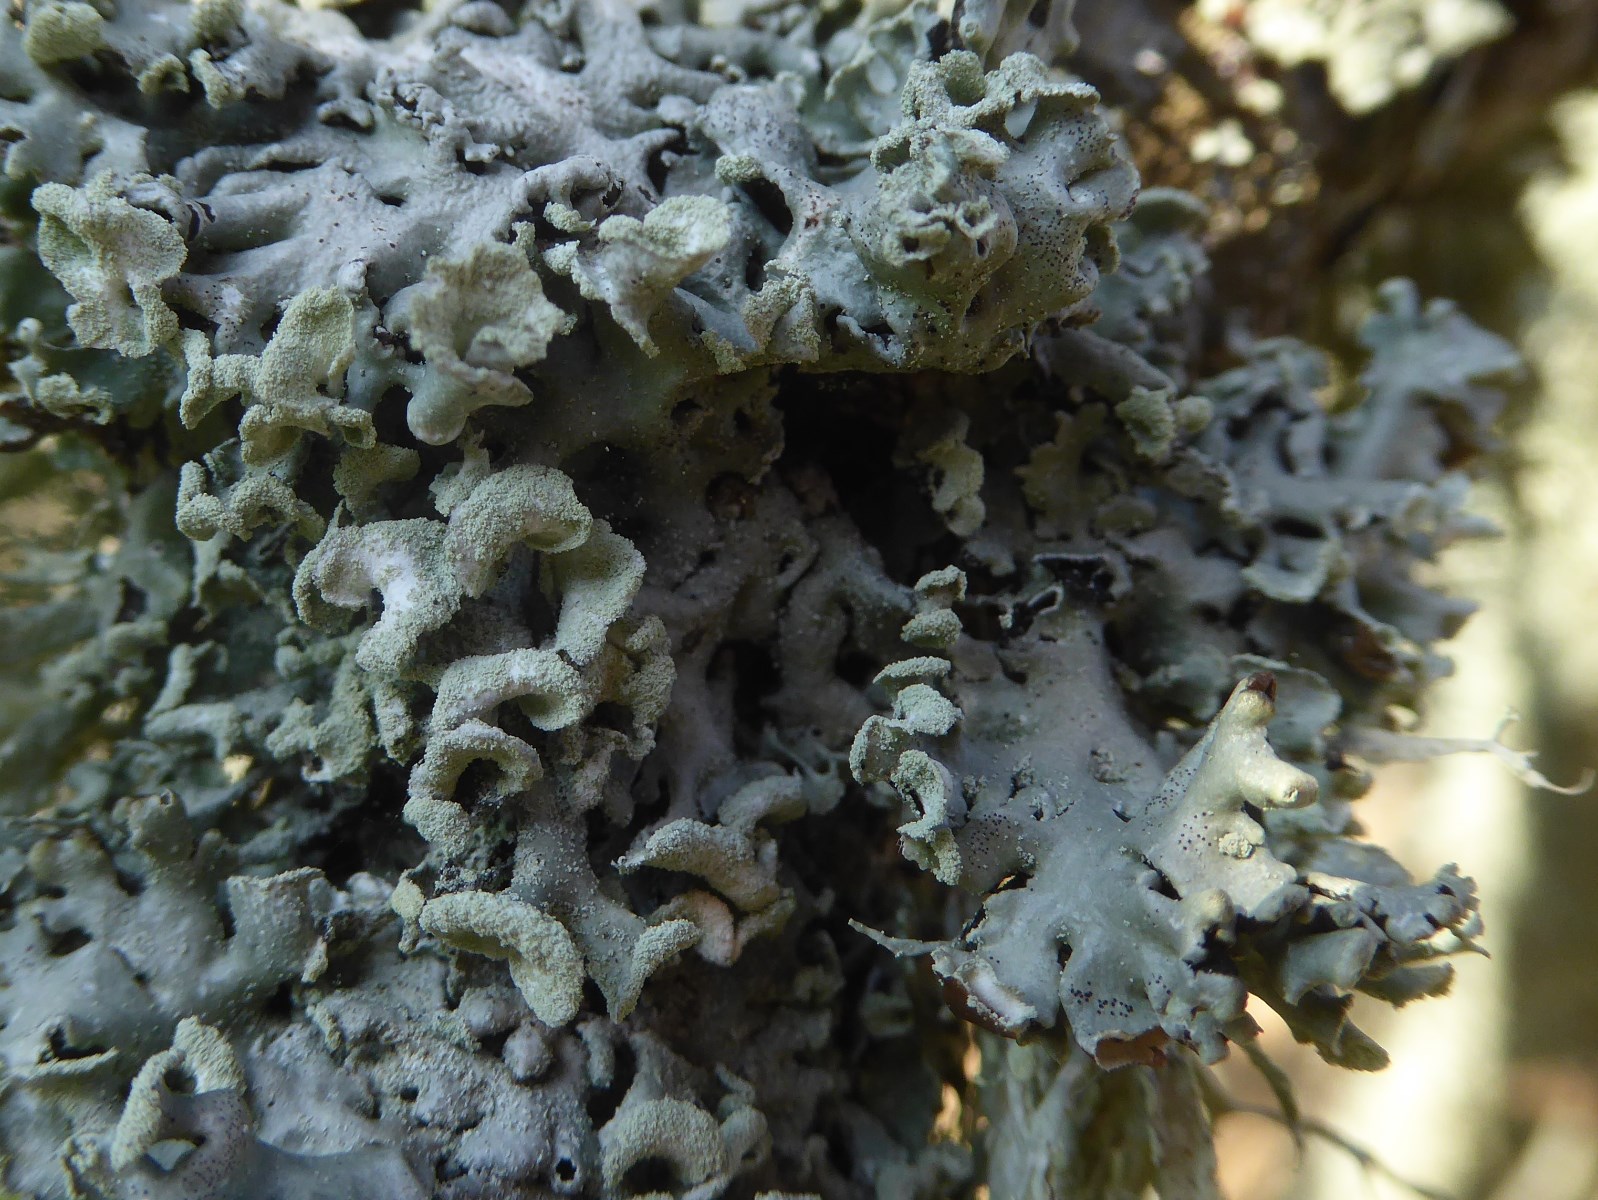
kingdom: Fungi
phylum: Ascomycota
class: Lecanoromycetes
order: Lecanorales
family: Parmeliaceae
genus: Hypogymnia
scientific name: Hypogymnia physodes
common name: almindelig kvistlav
